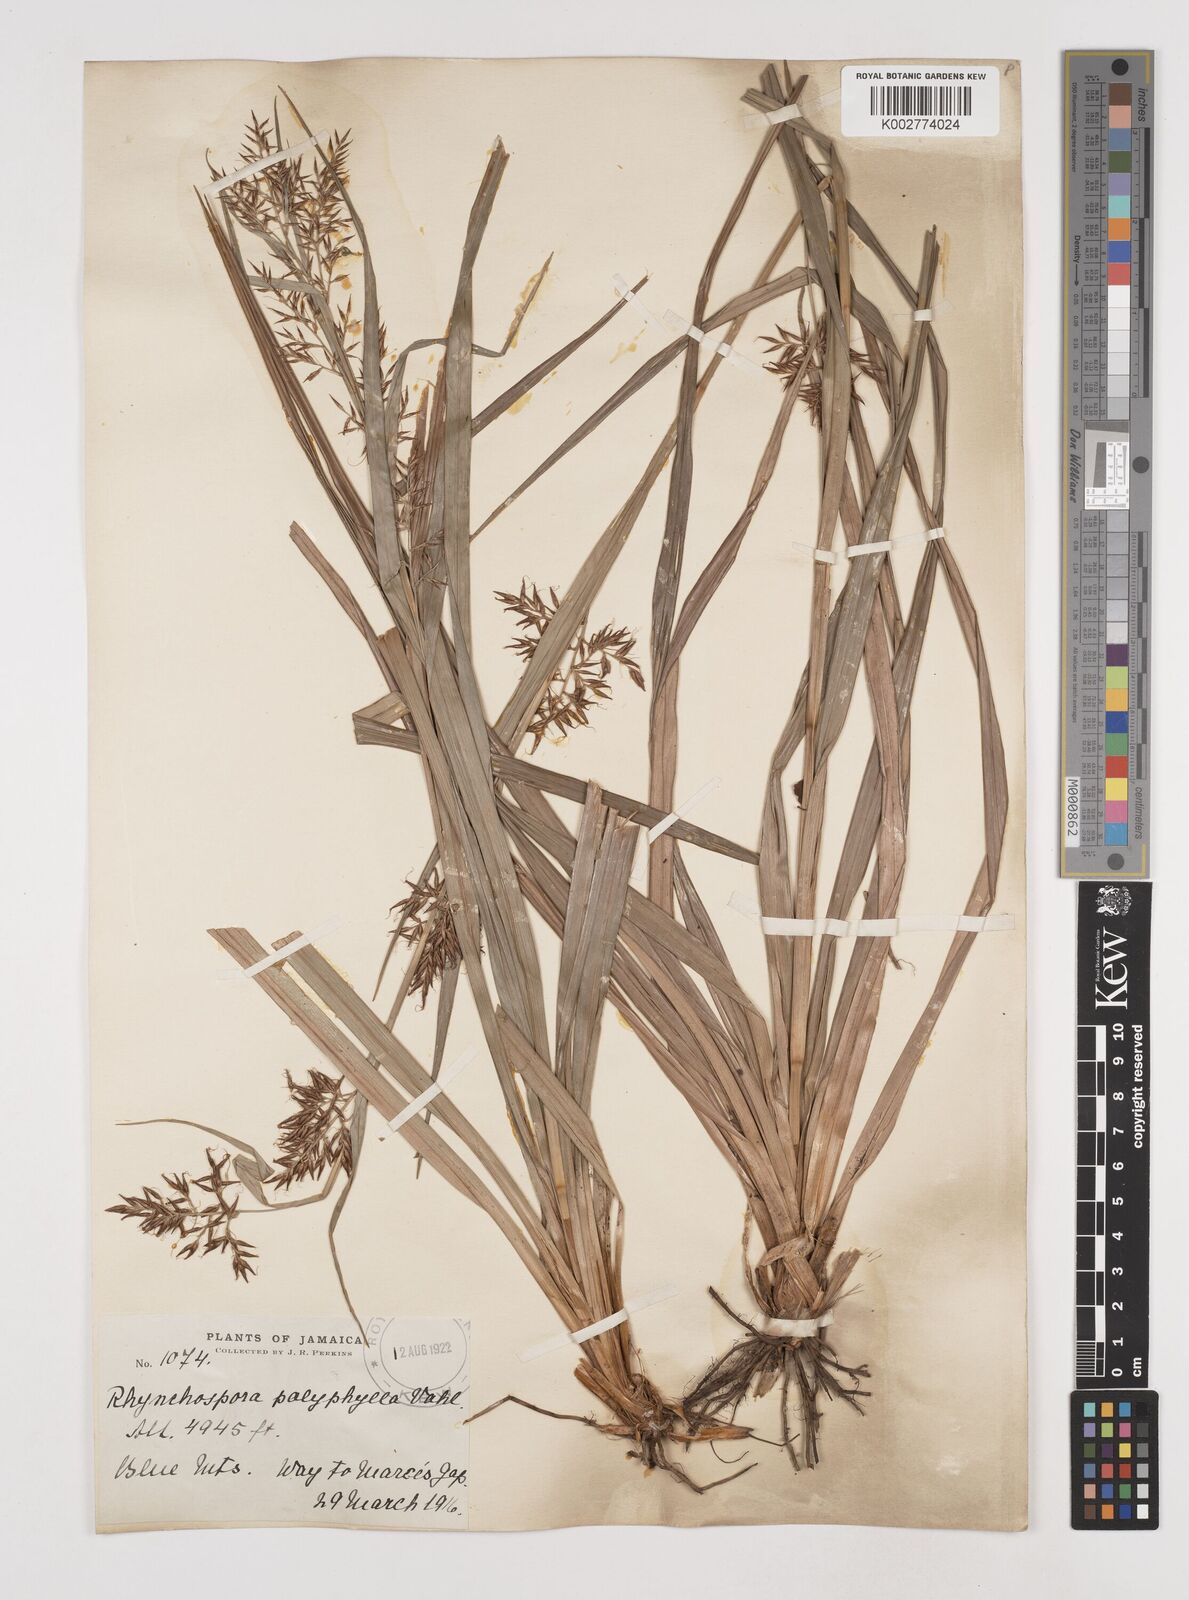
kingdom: Plantae
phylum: Tracheophyta
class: Liliopsida
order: Poales
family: Cyperaceae
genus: Rhynchospora
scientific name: Rhynchospora longiflora
